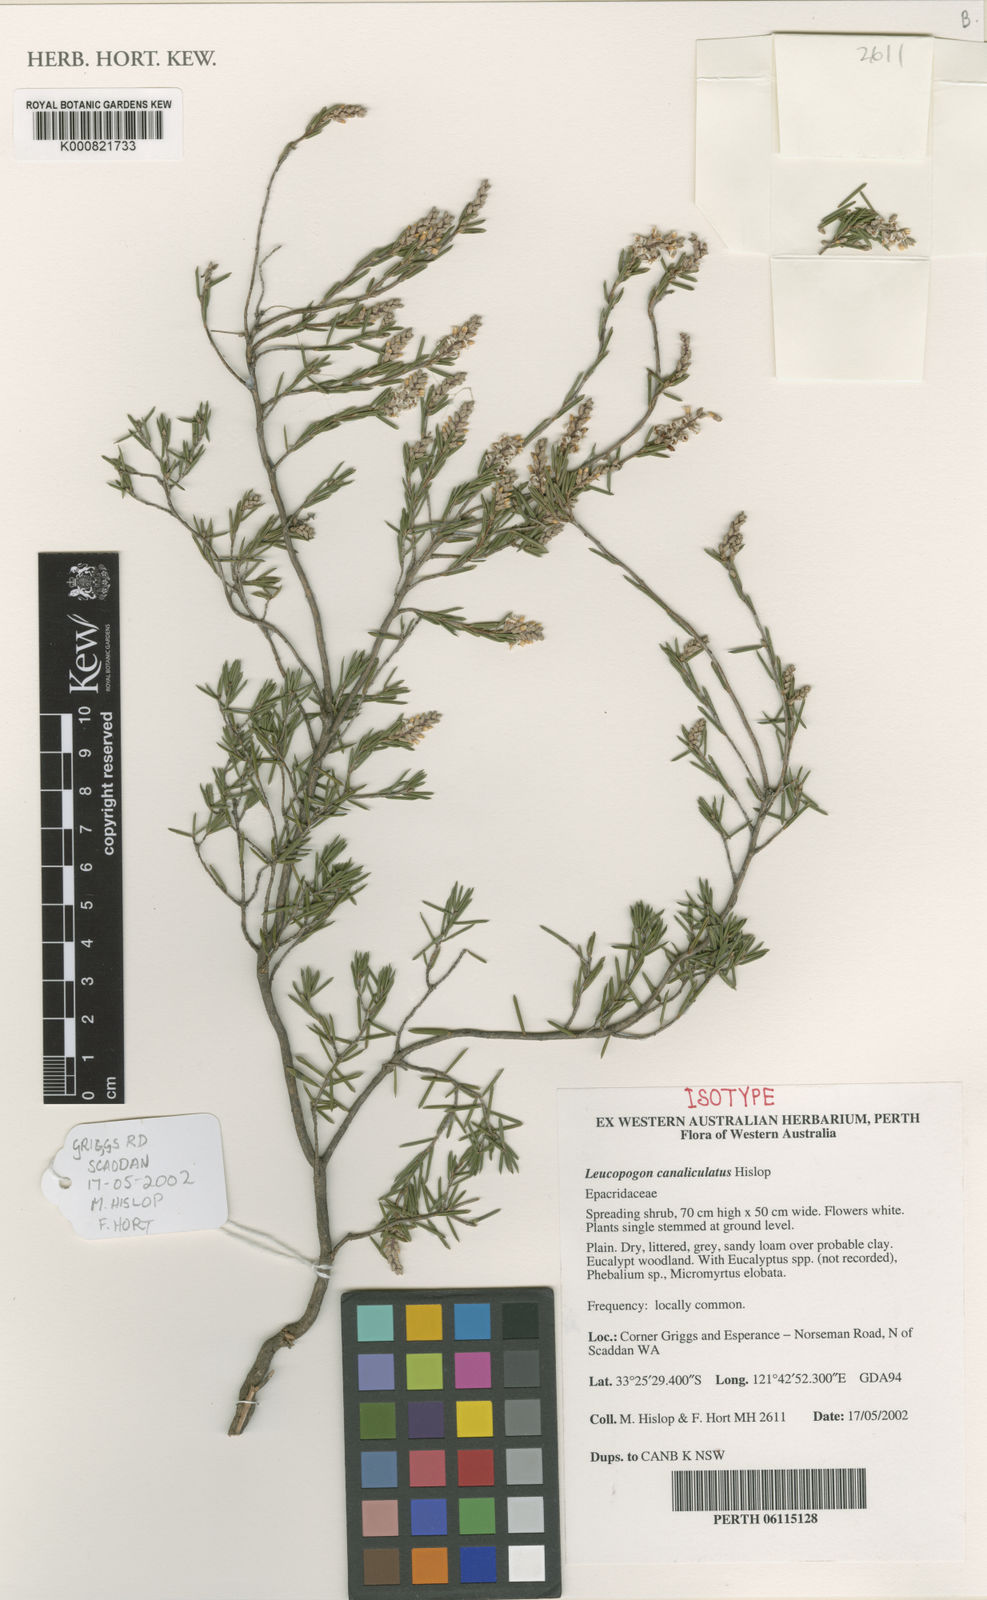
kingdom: Plantae
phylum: Tracheophyta
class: Magnoliopsida
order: Ericales
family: Ericaceae
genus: Leucopogon
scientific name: Leucopogon canaliculatus
